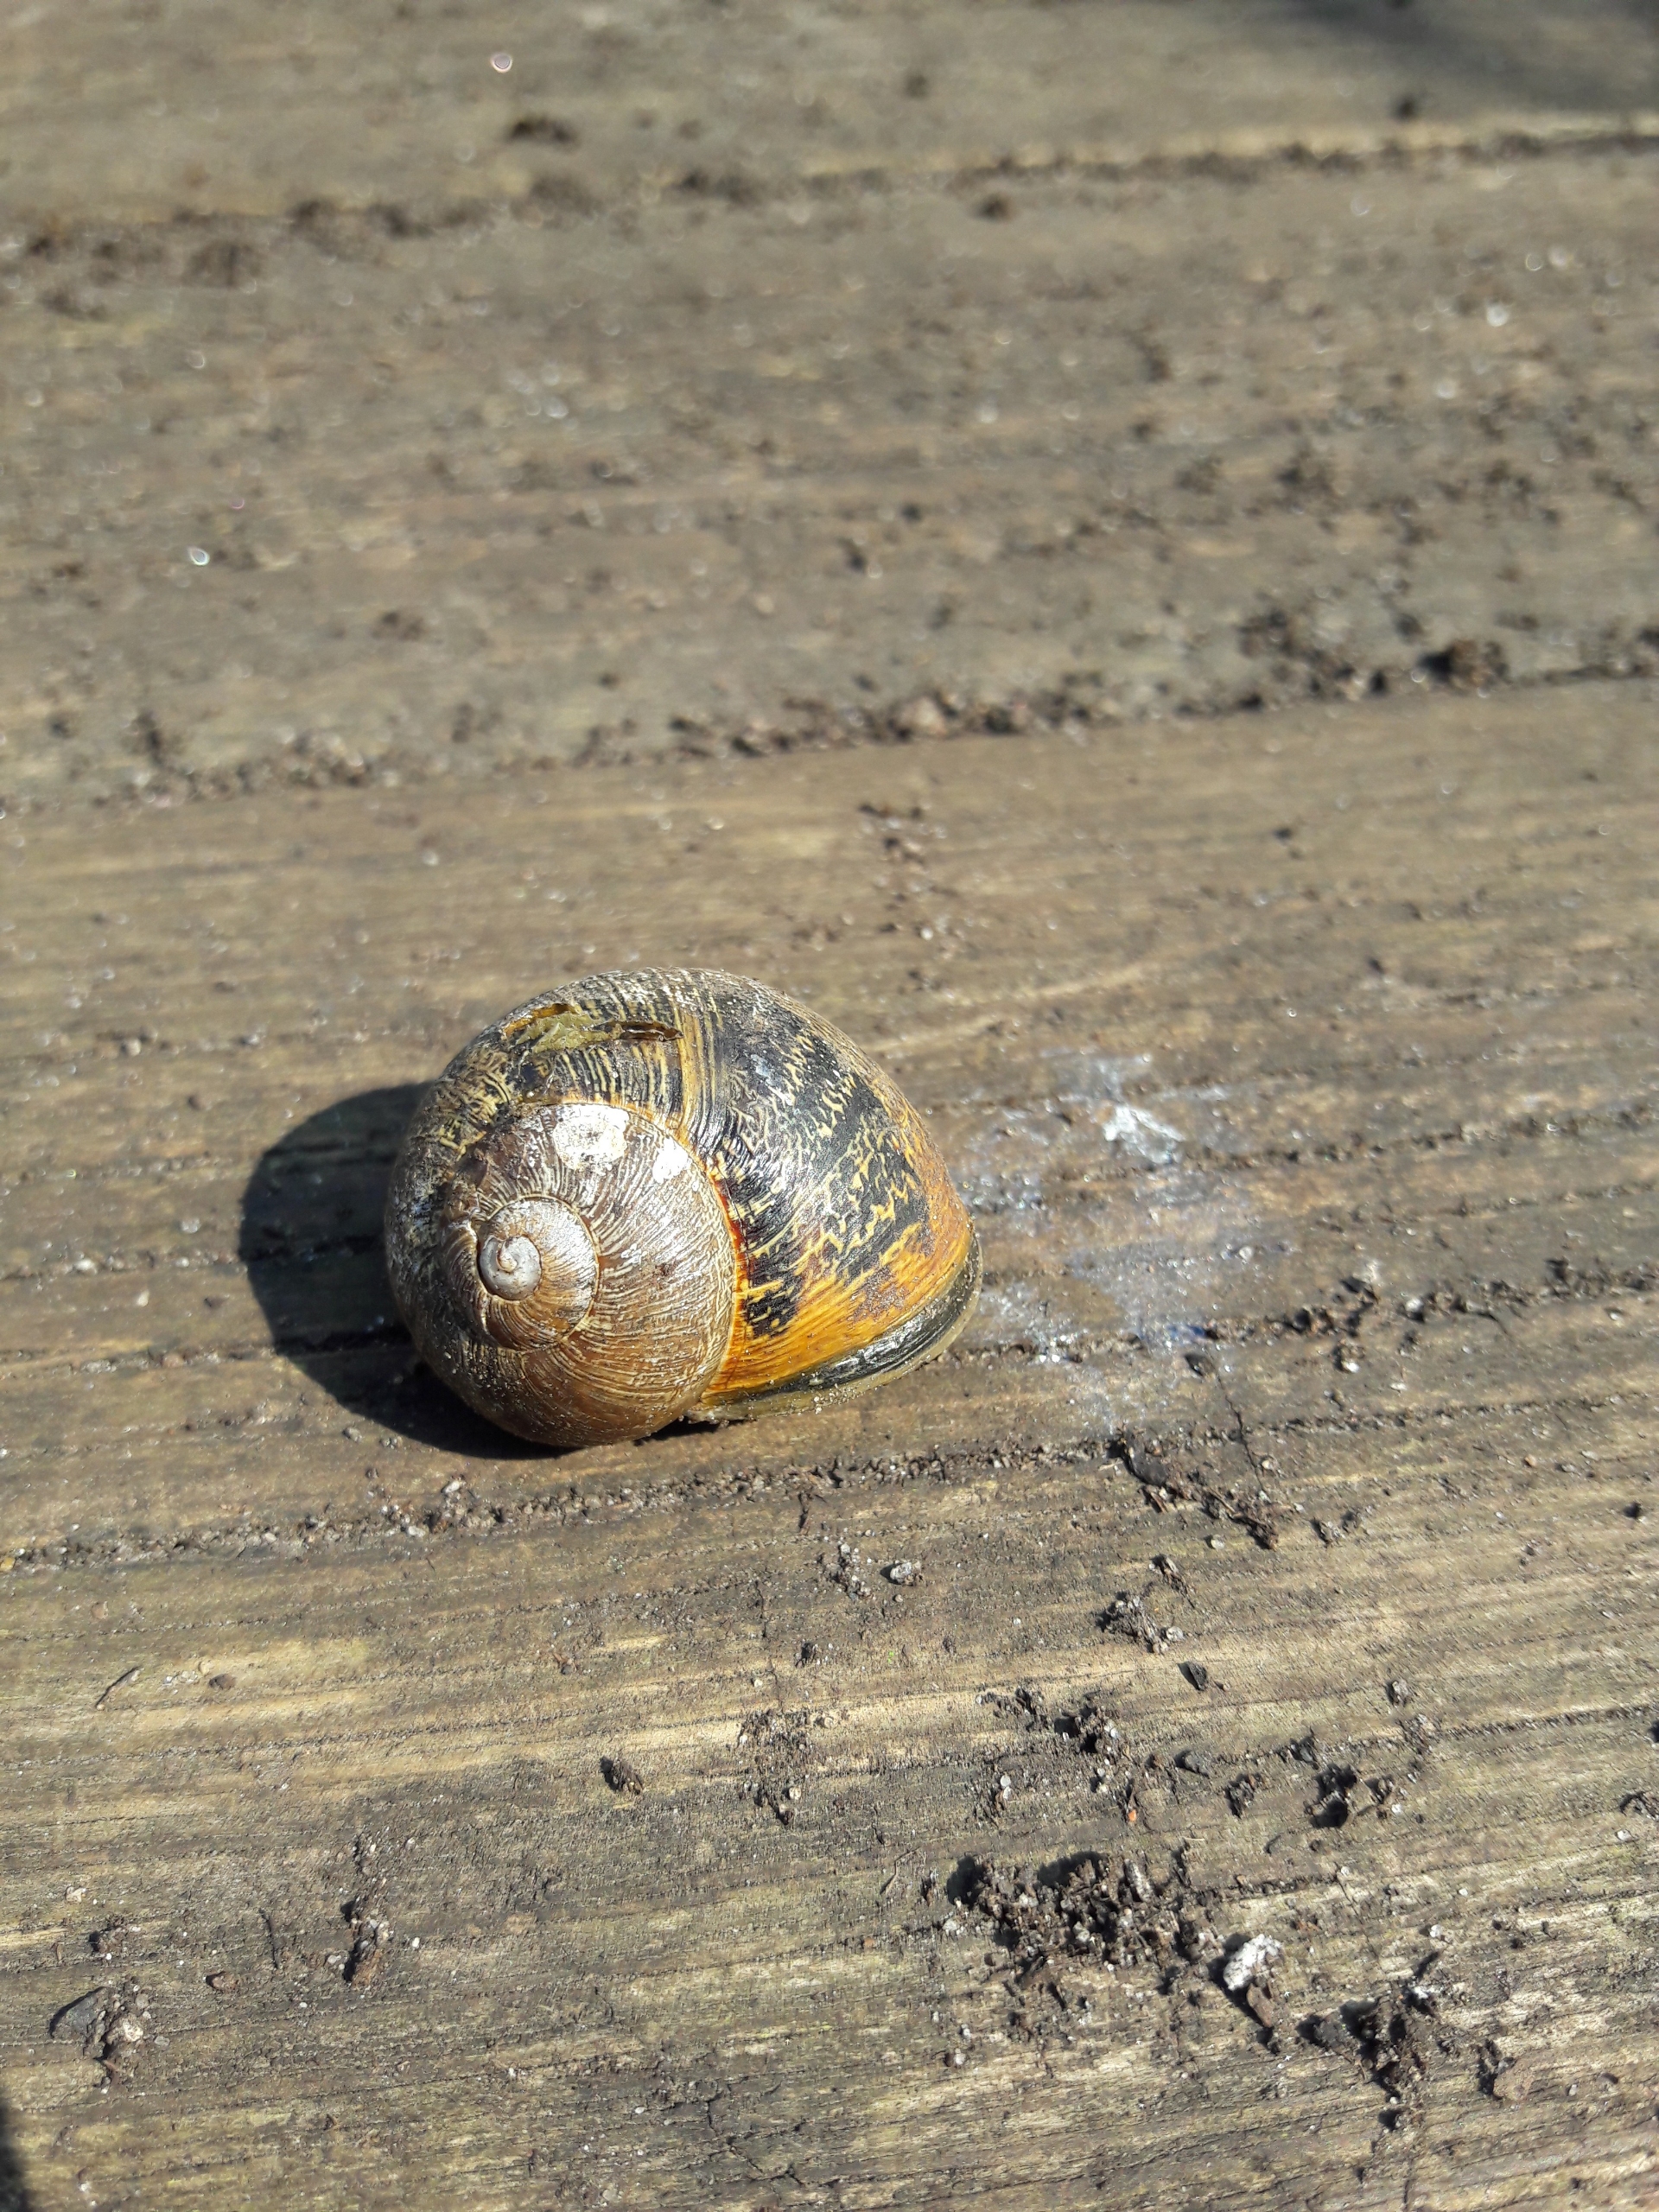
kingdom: Animalia
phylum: Mollusca
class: Gastropoda
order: Stylommatophora
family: Helicidae
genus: Cornu
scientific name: Cornu aspersum
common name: Plettet voldsnegl
